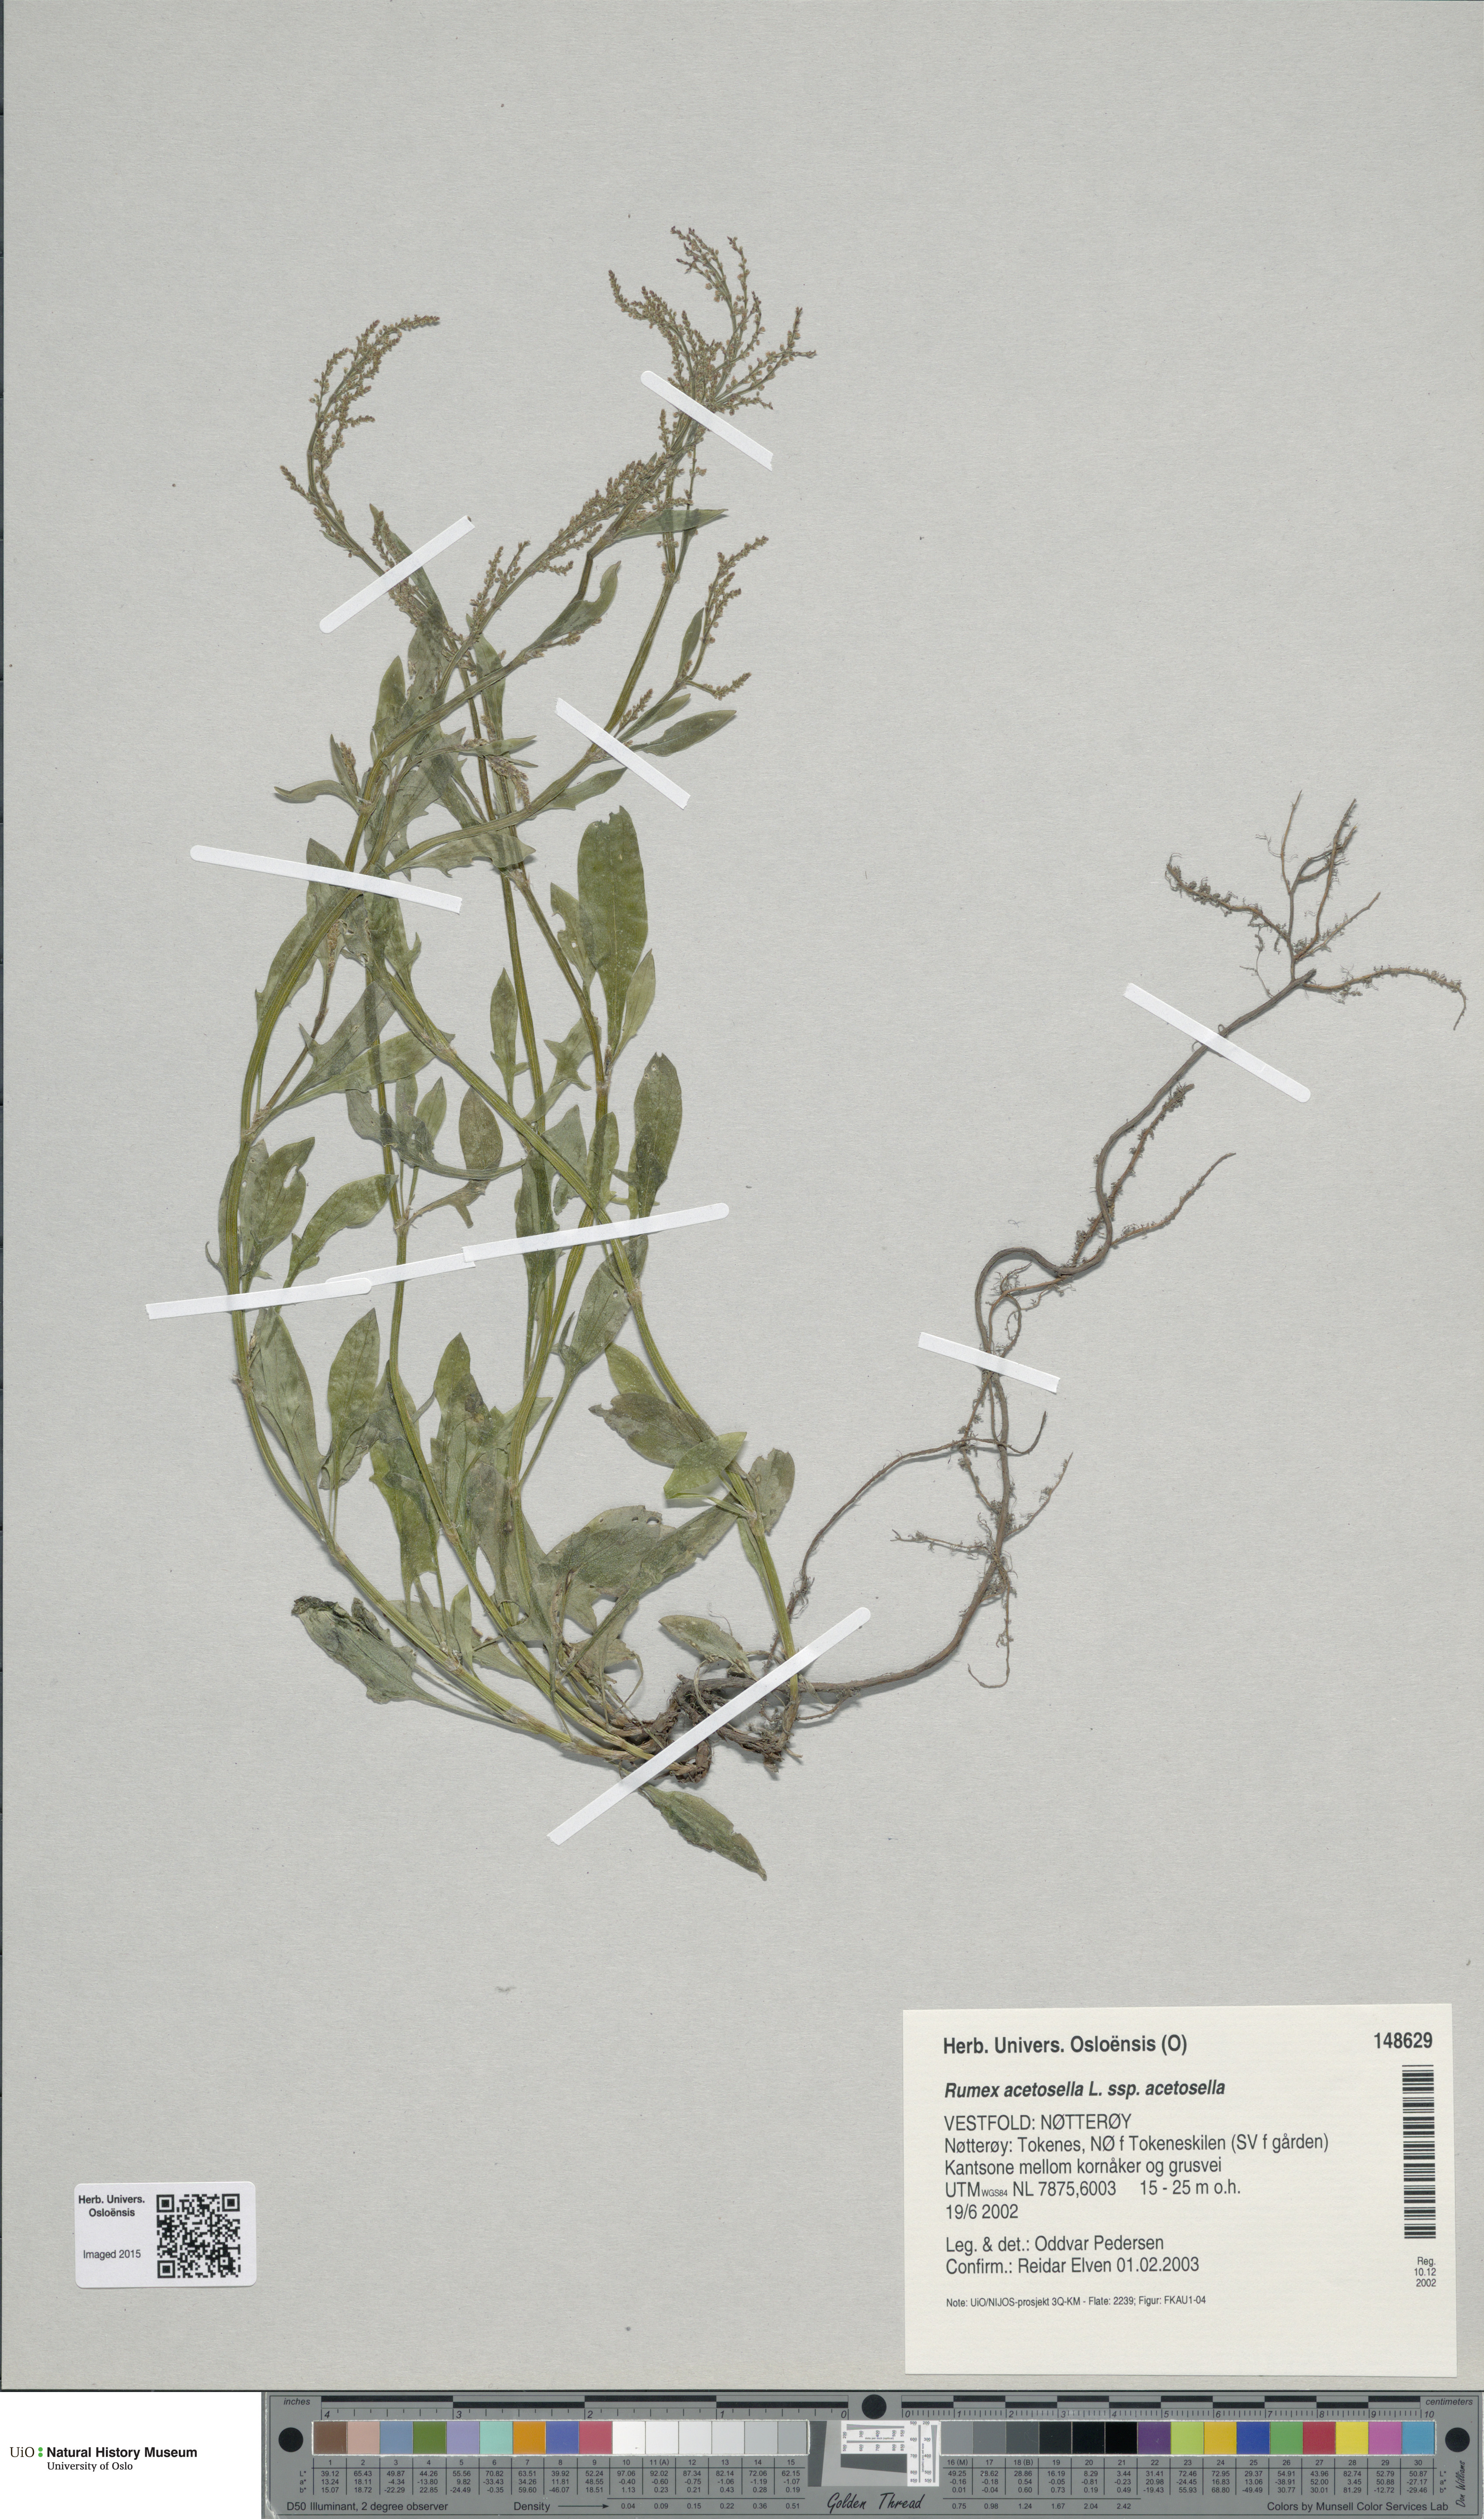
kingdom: Plantae
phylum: Tracheophyta
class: Magnoliopsida
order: Caryophyllales
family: Polygonaceae
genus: Rumex
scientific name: Rumex acetosella
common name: Common sheep sorrel
